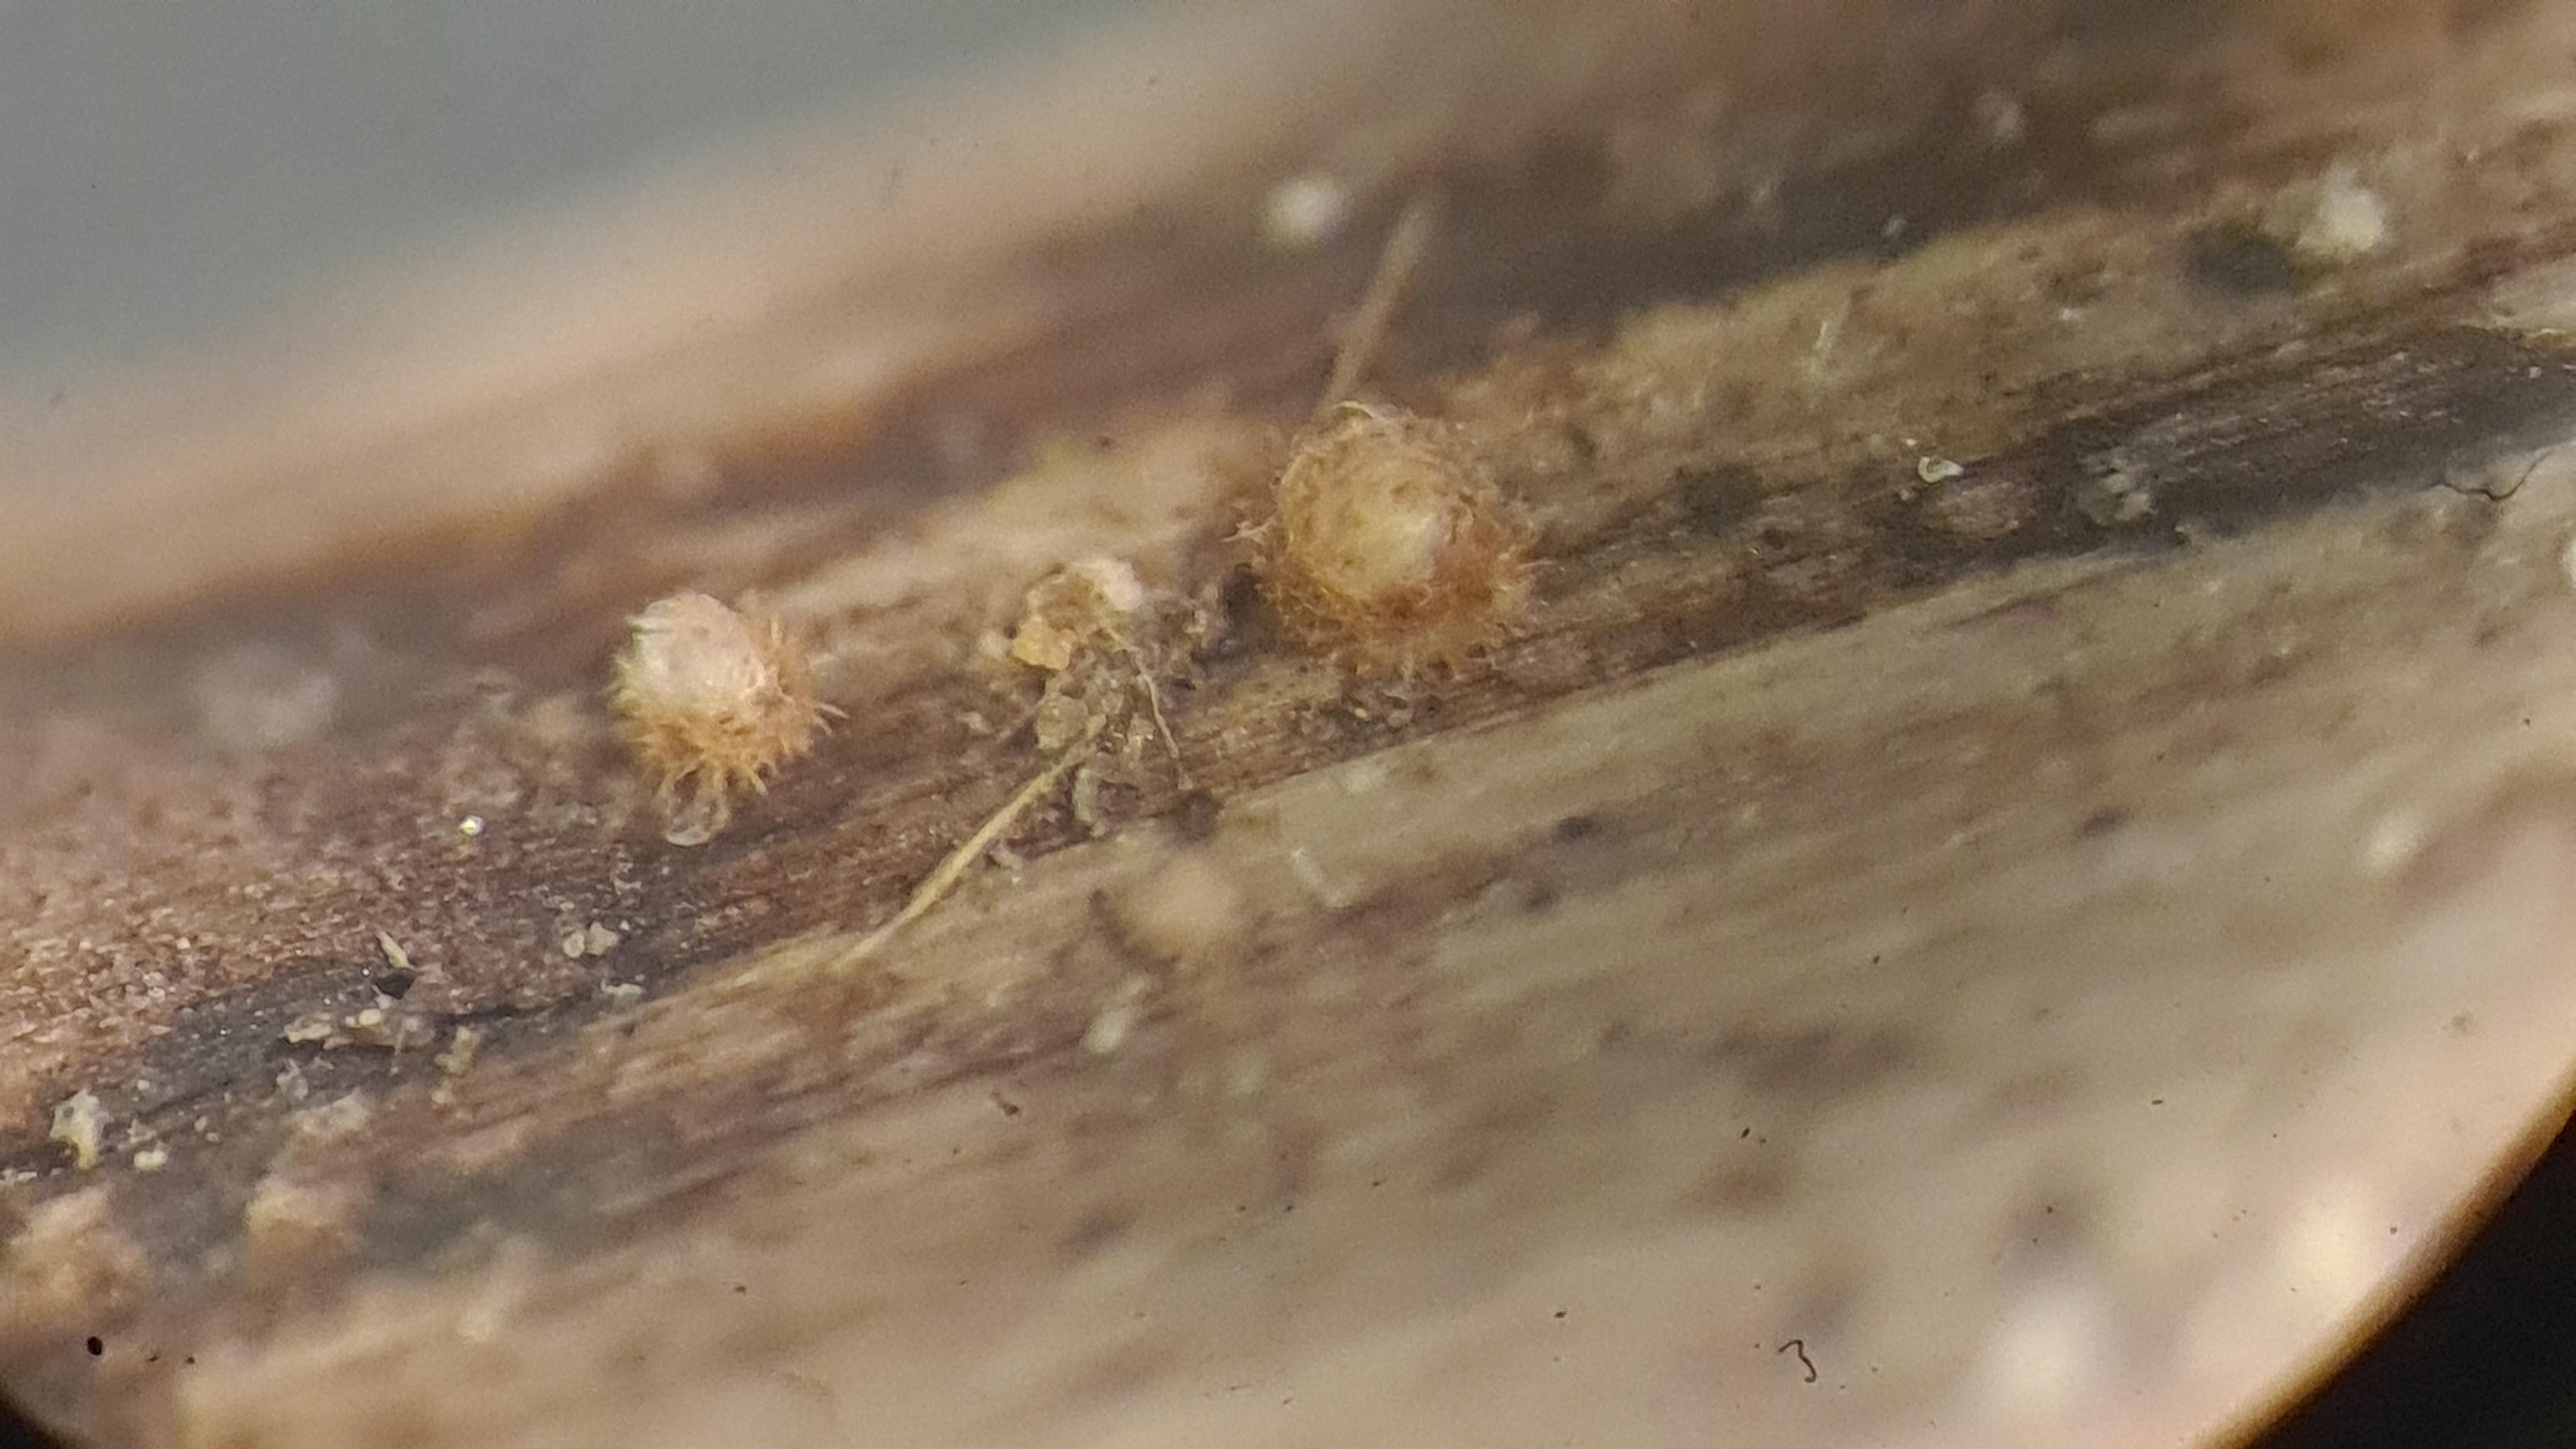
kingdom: Fungi
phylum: Ascomycota
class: Leotiomycetes
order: Helotiales
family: Lachnaceae
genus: Trichopeziza
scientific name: Trichopeziza
